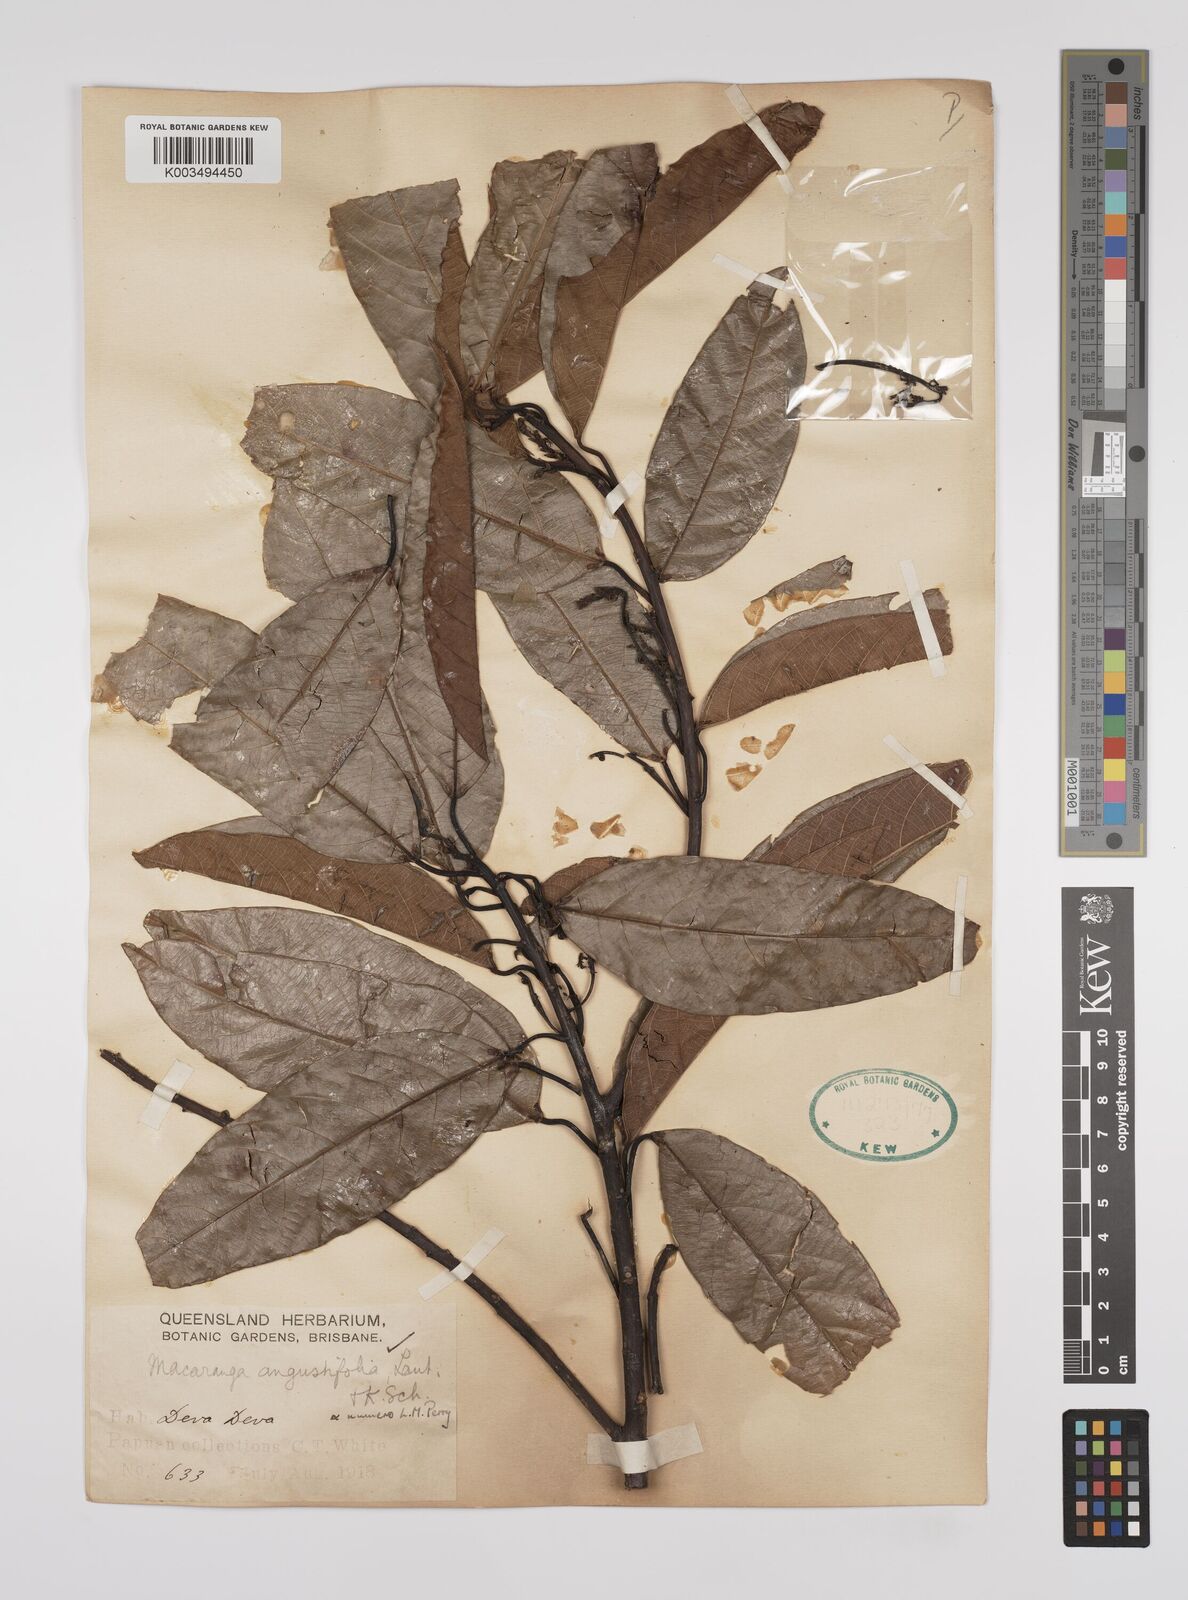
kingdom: Plantae
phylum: Tracheophyta
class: Magnoliopsida
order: Malpighiales
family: Euphorbiaceae
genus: Macaranga
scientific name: Macaranga angustifolia
